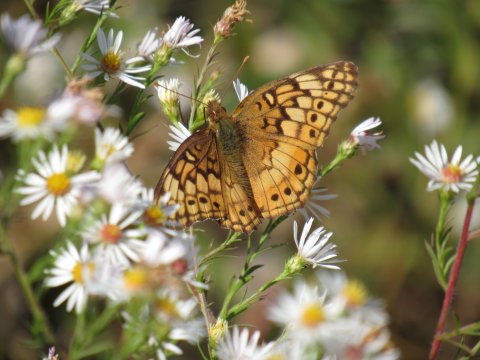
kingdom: Animalia
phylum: Arthropoda
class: Insecta
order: Lepidoptera
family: Nymphalidae
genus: Euptoieta
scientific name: Euptoieta claudia
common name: Variegated Fritillary
